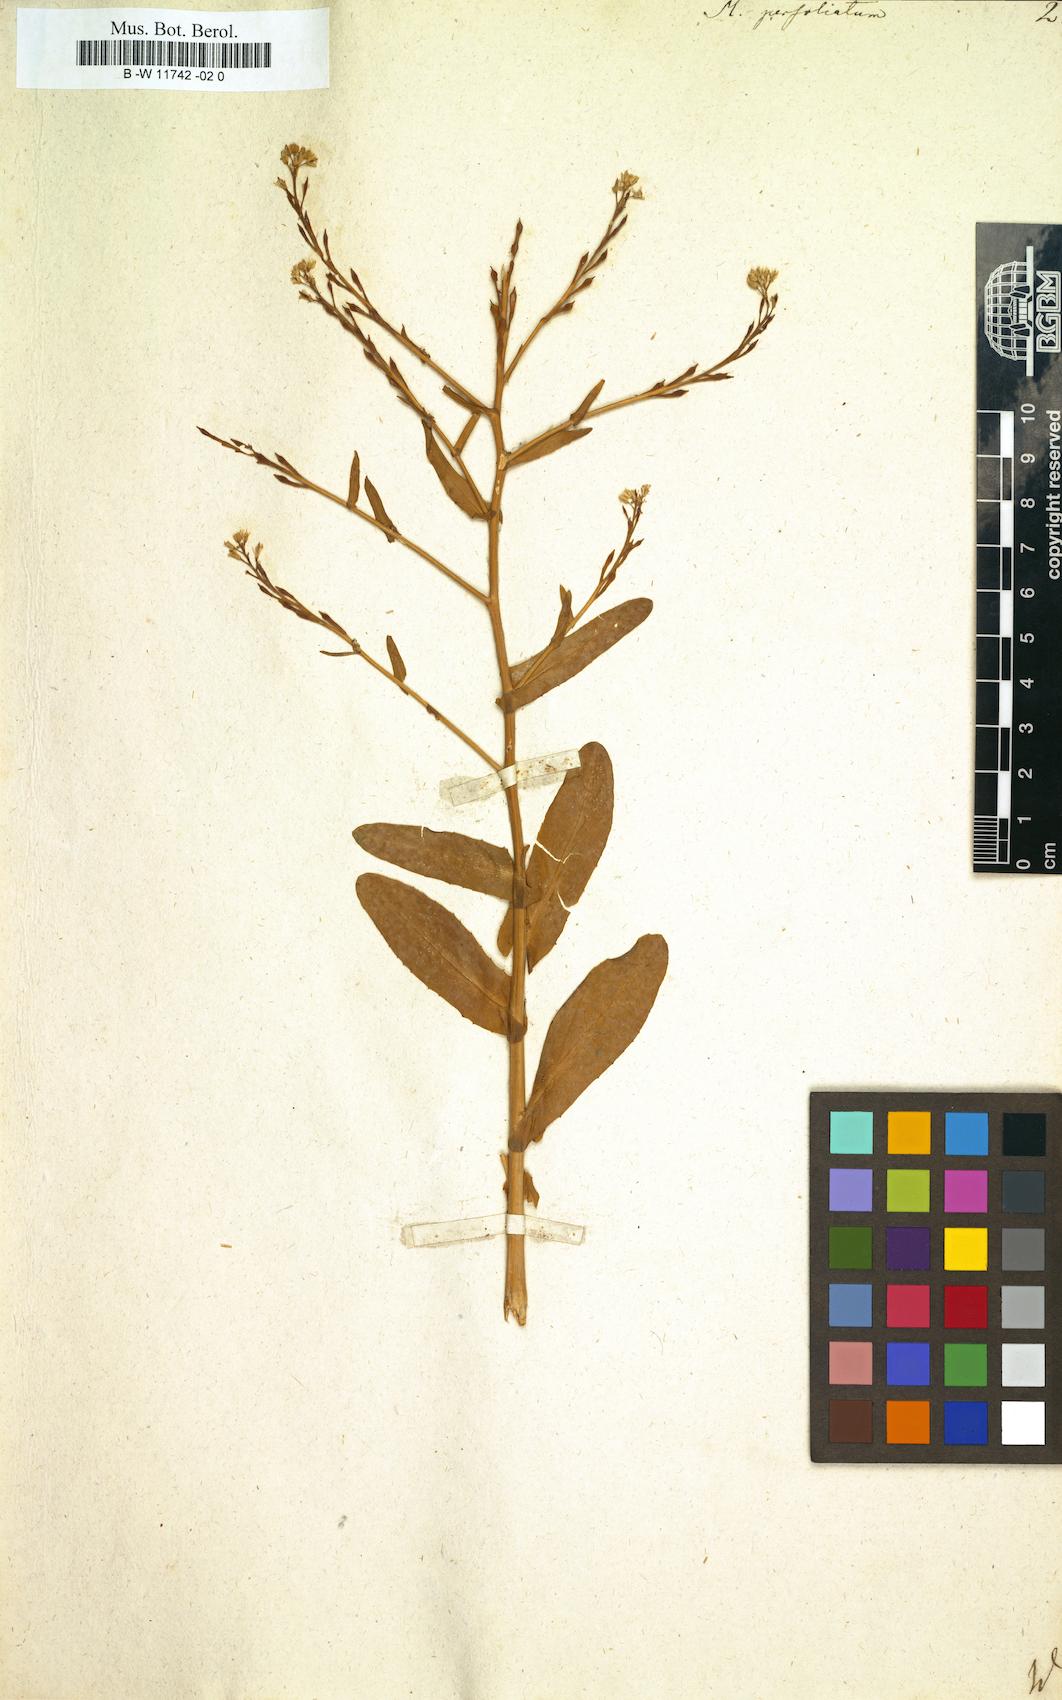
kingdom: Plantae
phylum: Tracheophyta
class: Magnoliopsida
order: Brassicales
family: Brassicaceae
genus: Myagrum
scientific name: Myagrum perfoliatum
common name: Mitre cress
